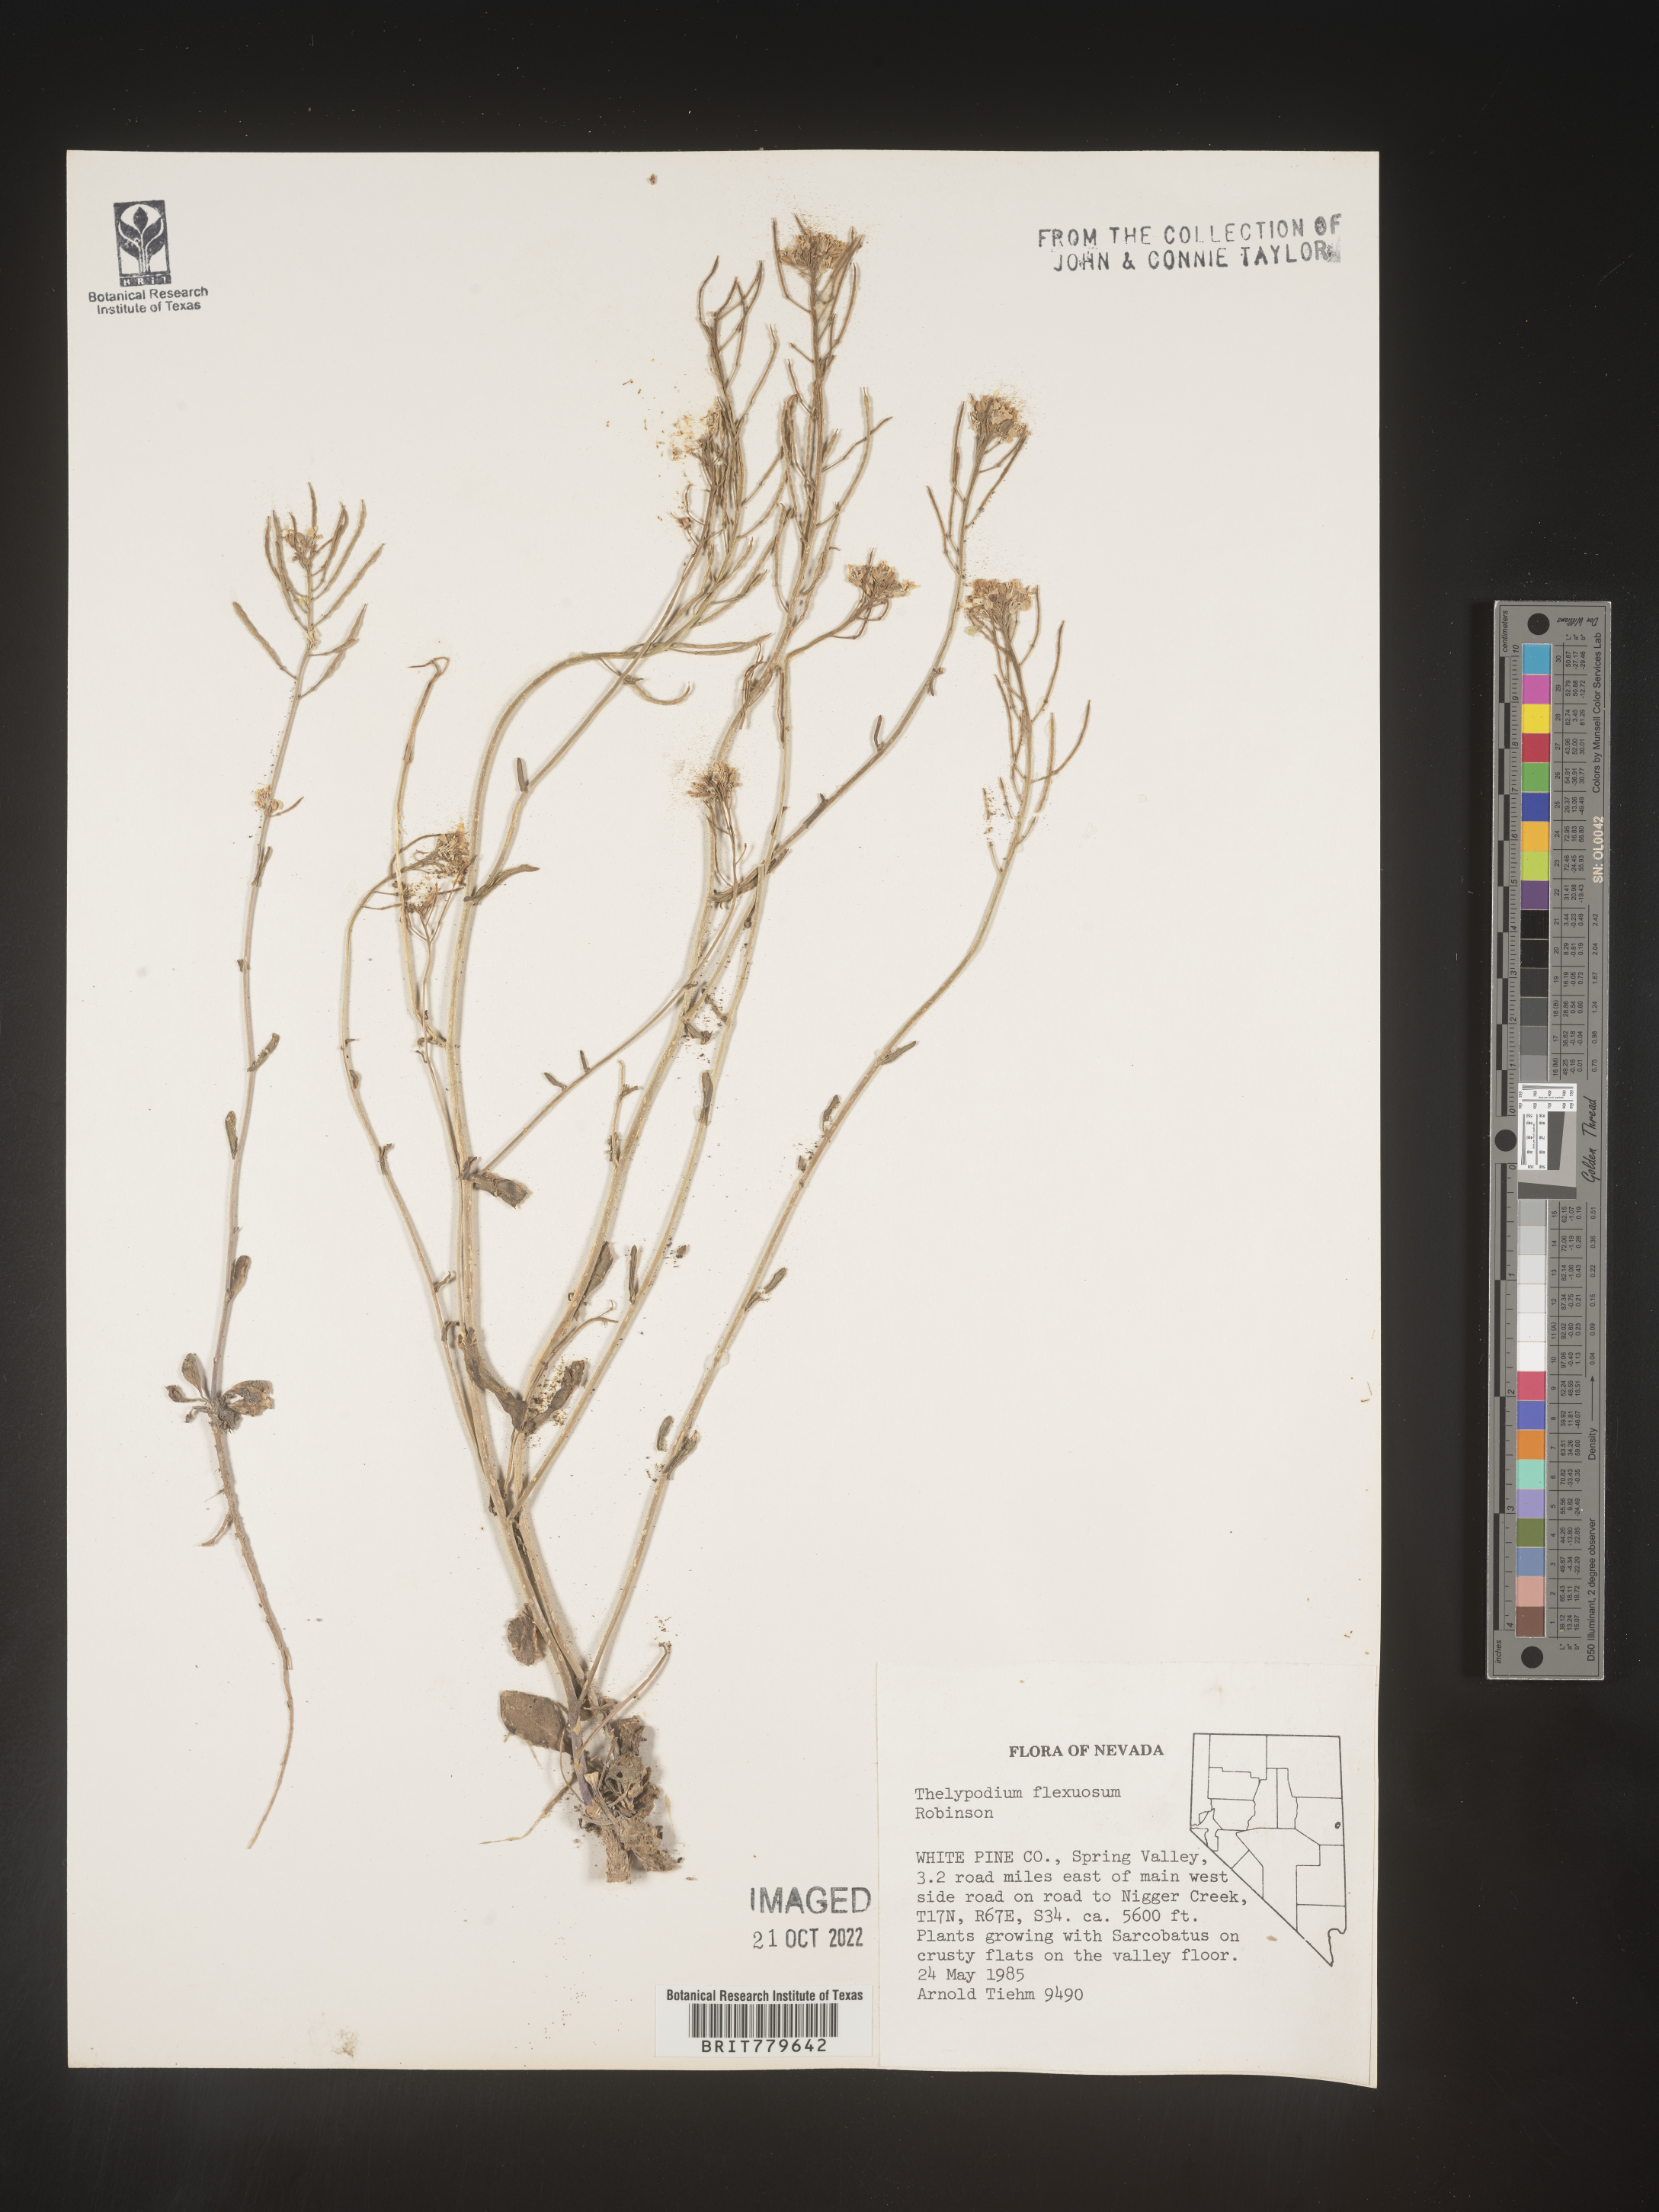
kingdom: Plantae
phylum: Tracheophyta
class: Magnoliopsida
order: Brassicales
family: Brassicaceae
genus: Thelypodium
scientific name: Thelypodium
